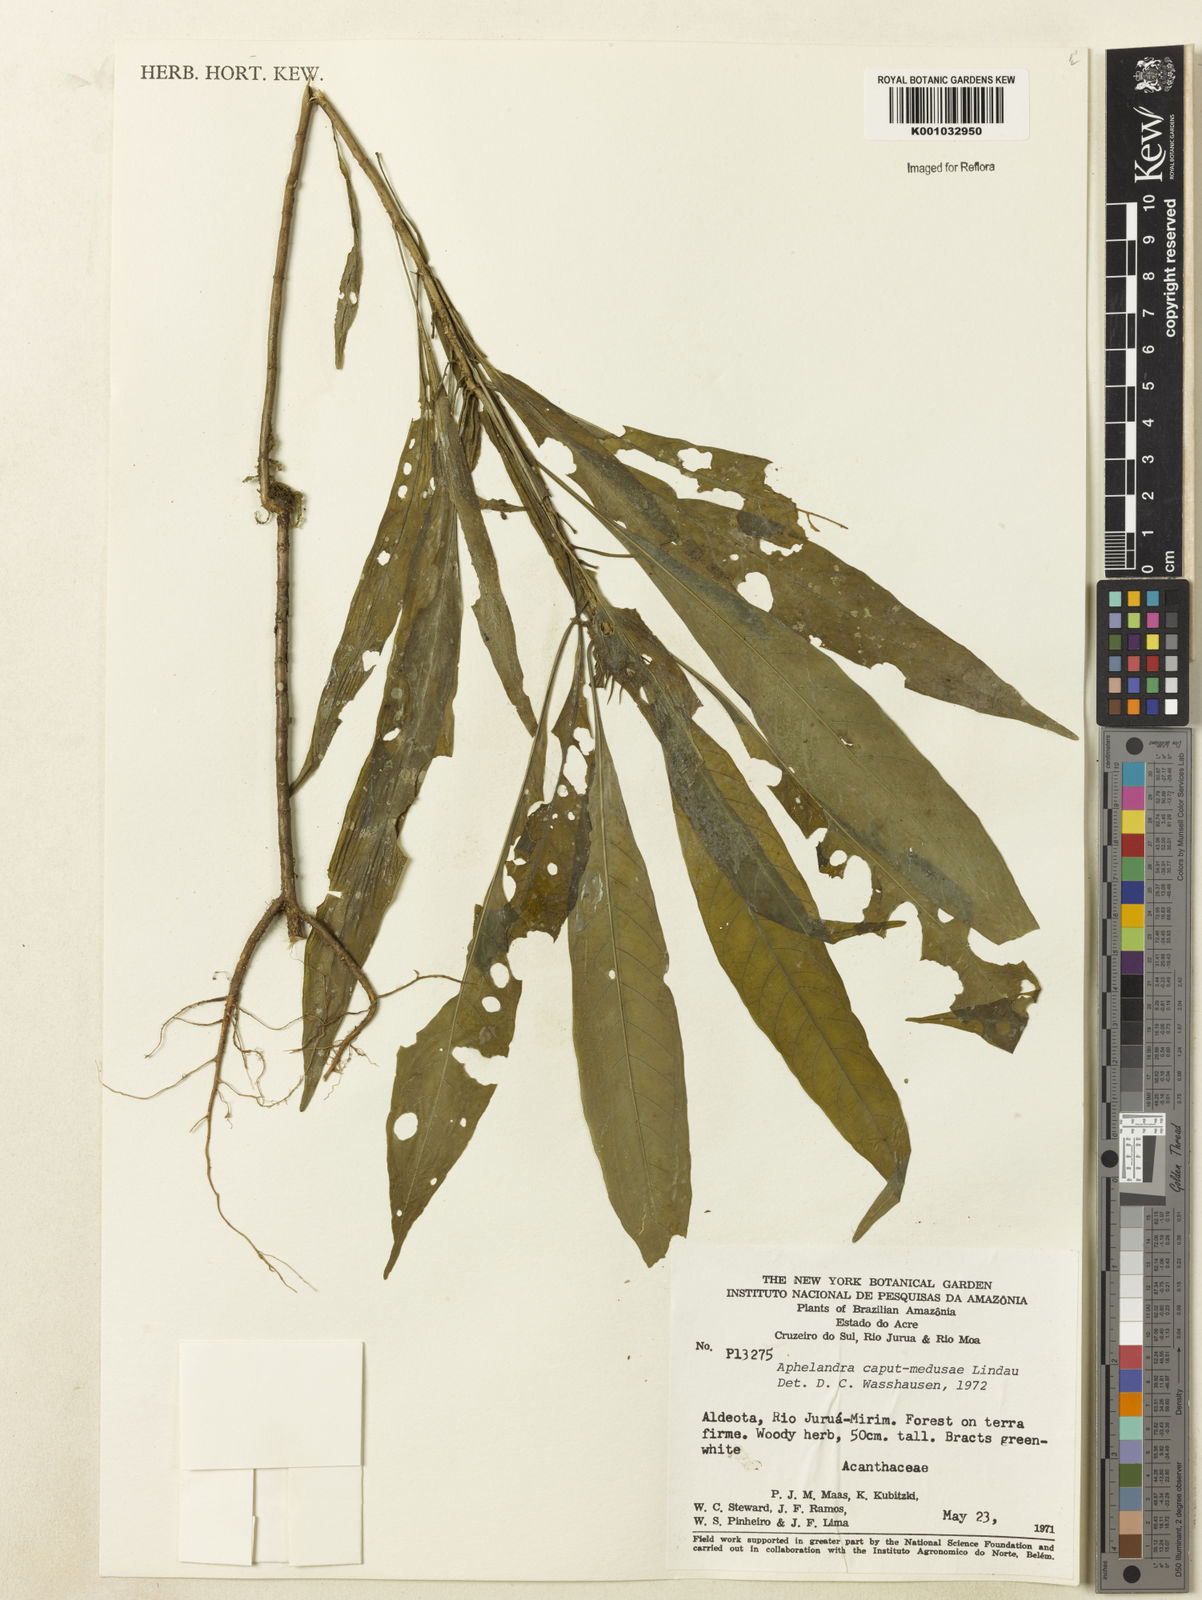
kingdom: Plantae
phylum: Tracheophyta
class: Magnoliopsida
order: Lamiales
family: Acanthaceae
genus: Aphelandra
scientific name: Aphelandra caput-medusae
